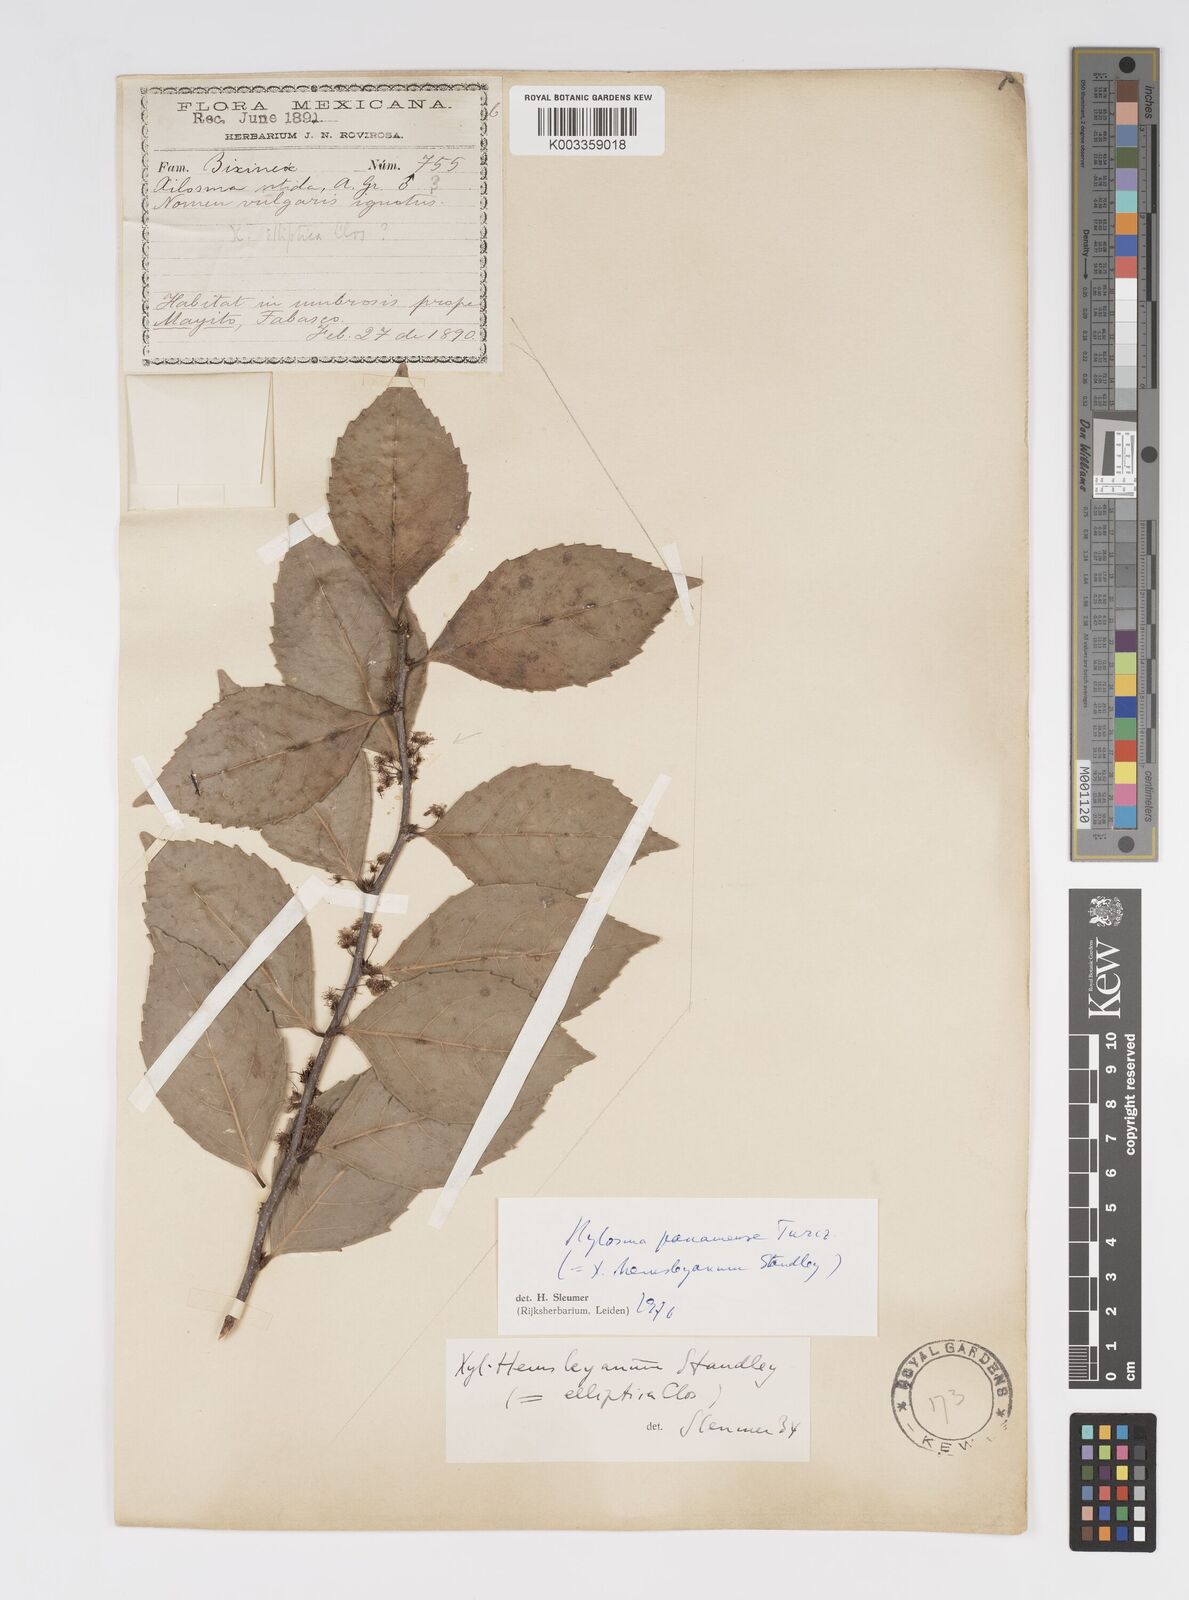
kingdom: Plantae
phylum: Tracheophyta
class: Magnoliopsida
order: Malpighiales
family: Salicaceae
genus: Xylosma
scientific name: Xylosma panamensis
